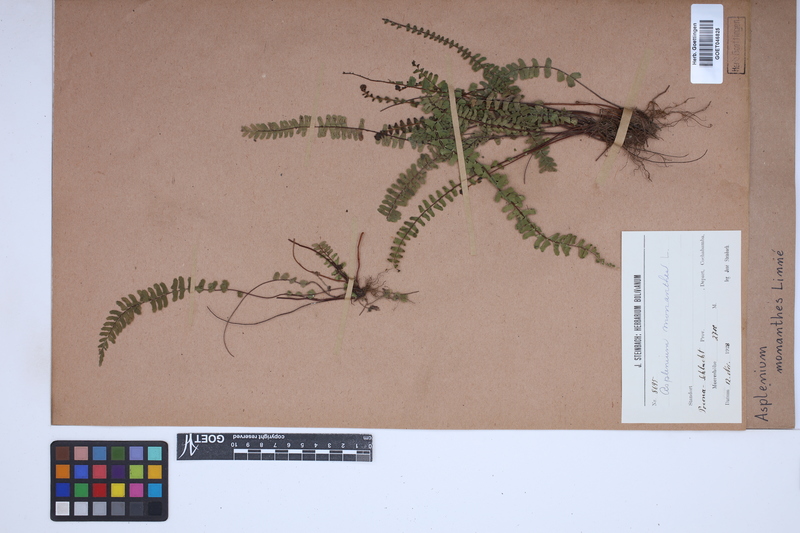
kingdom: Plantae
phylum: Tracheophyta
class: Polypodiopsida
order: Polypodiales
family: Aspleniaceae
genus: Asplenium
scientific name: Asplenium monanthes
